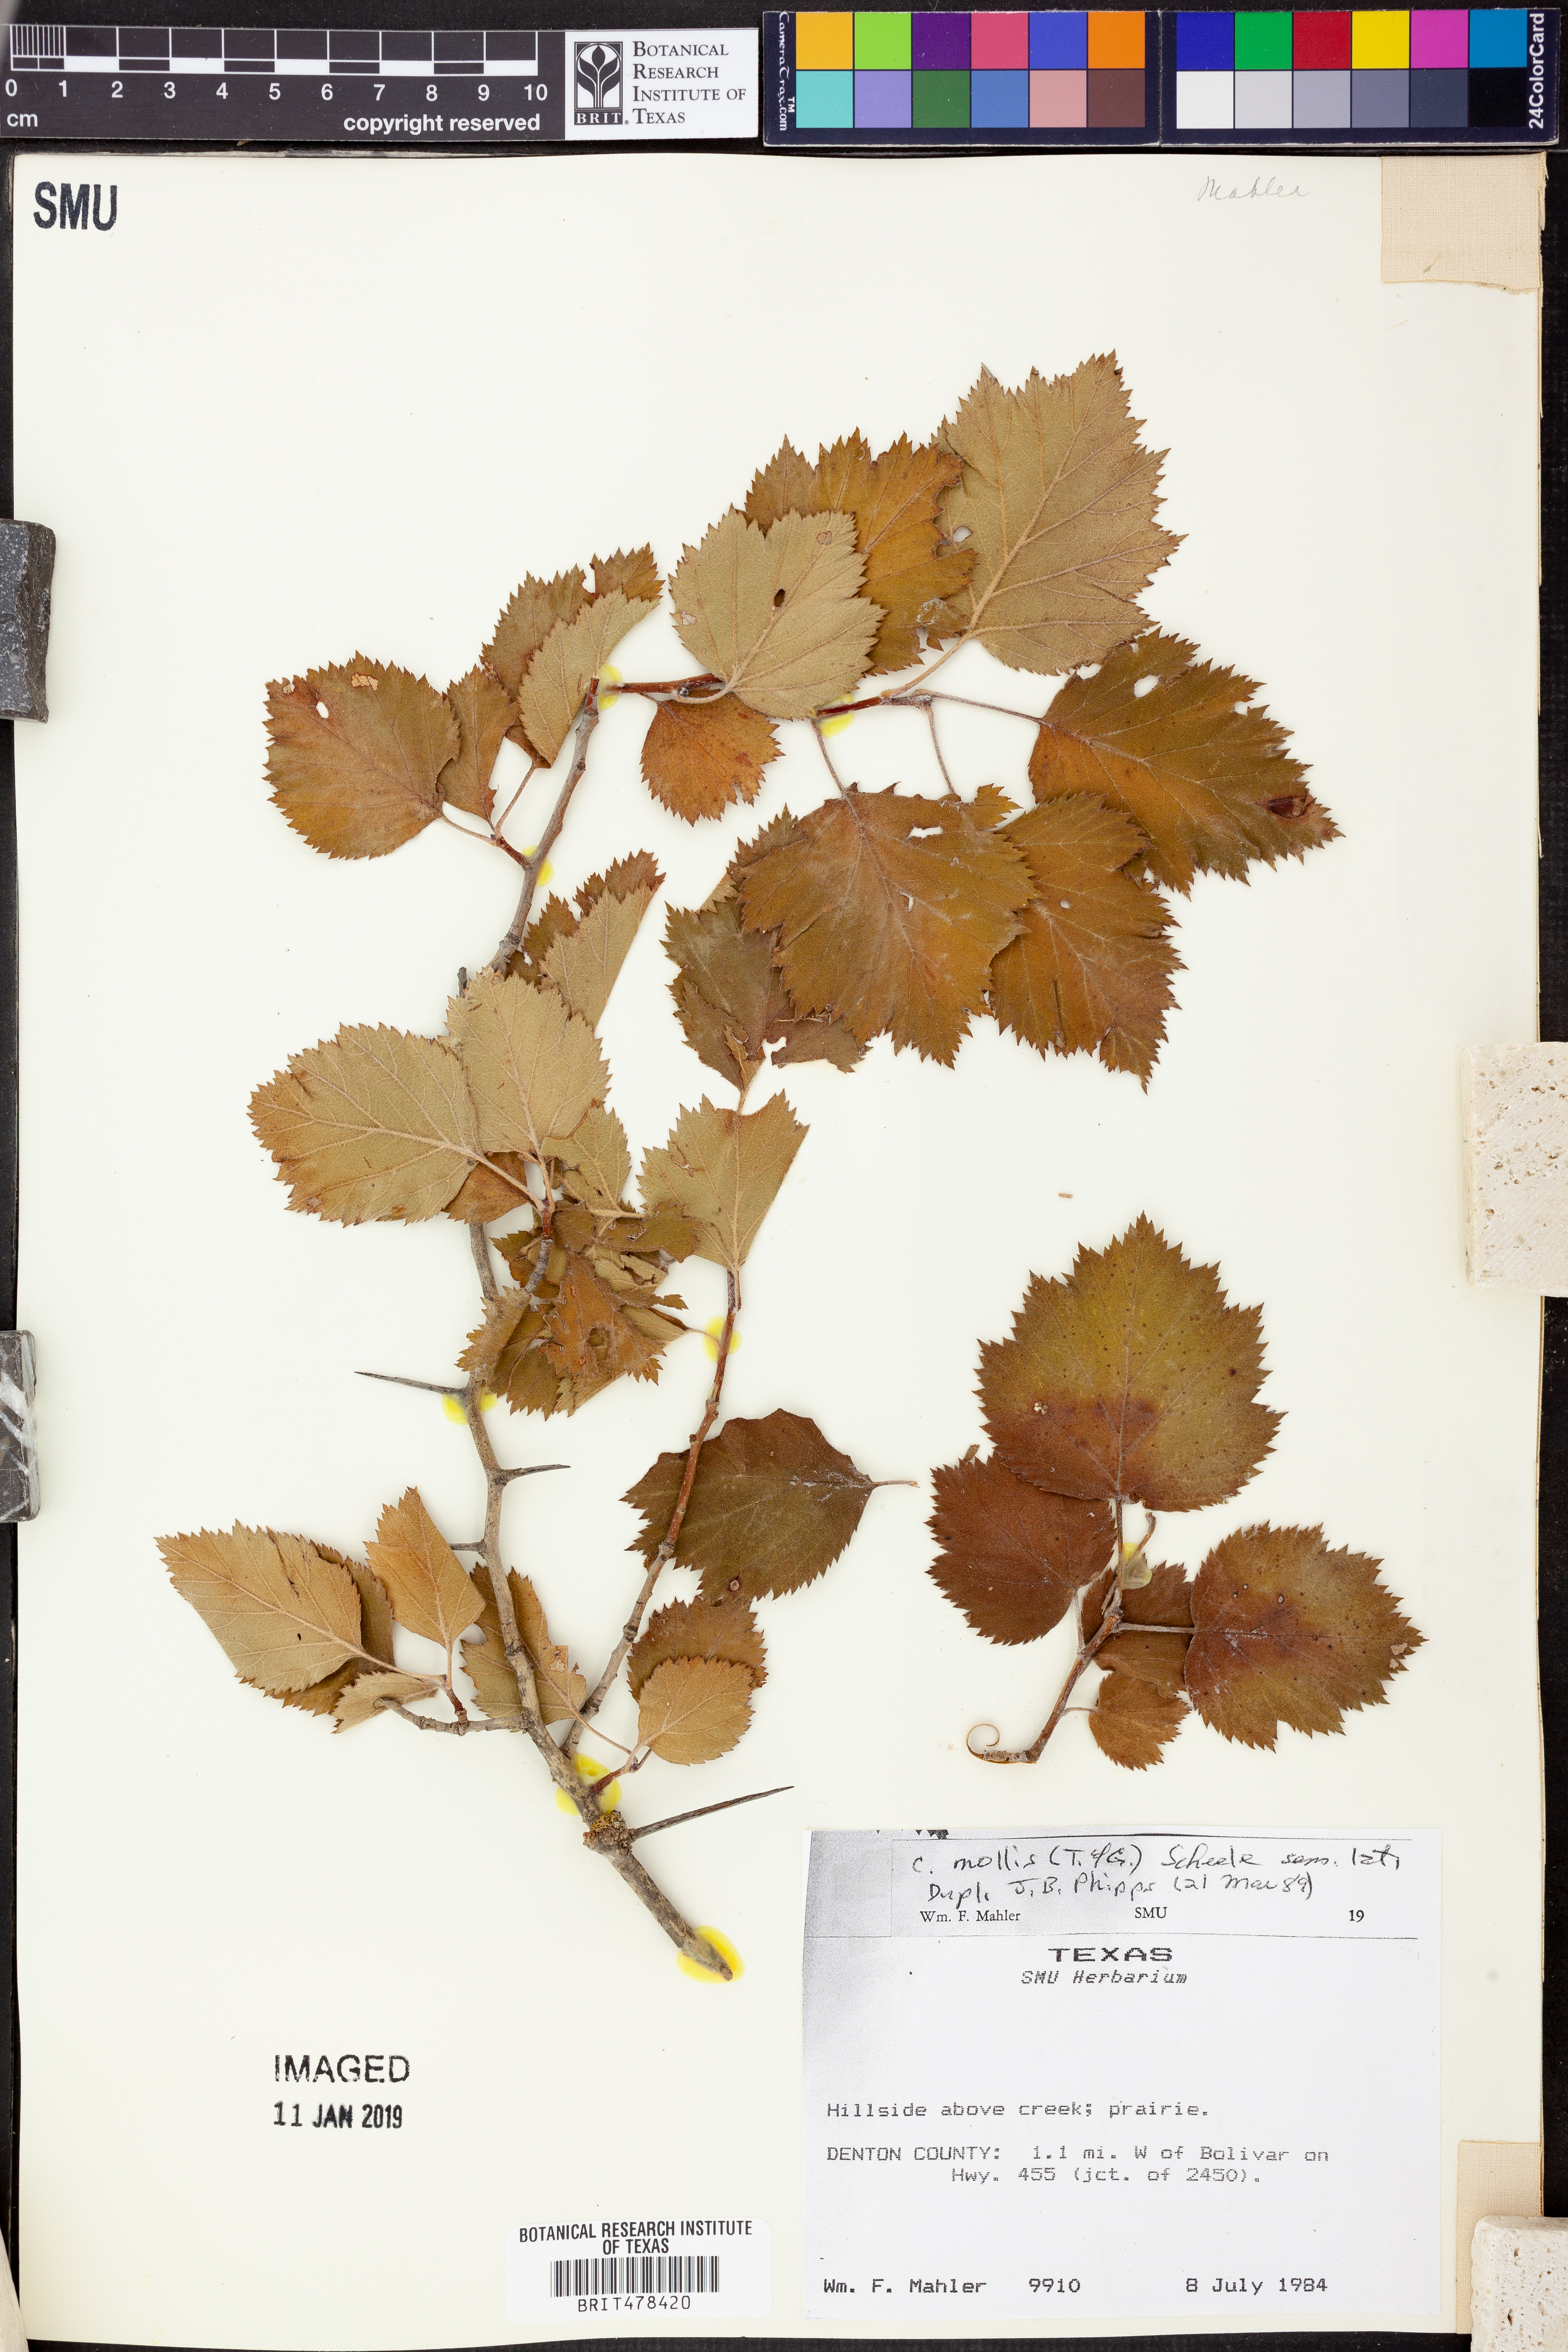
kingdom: Plantae
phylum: Tracheophyta
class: Magnoliopsida
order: Rosales
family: Rosaceae
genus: Crataegus
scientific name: Crataegus mollis
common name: Downy hawthorn
